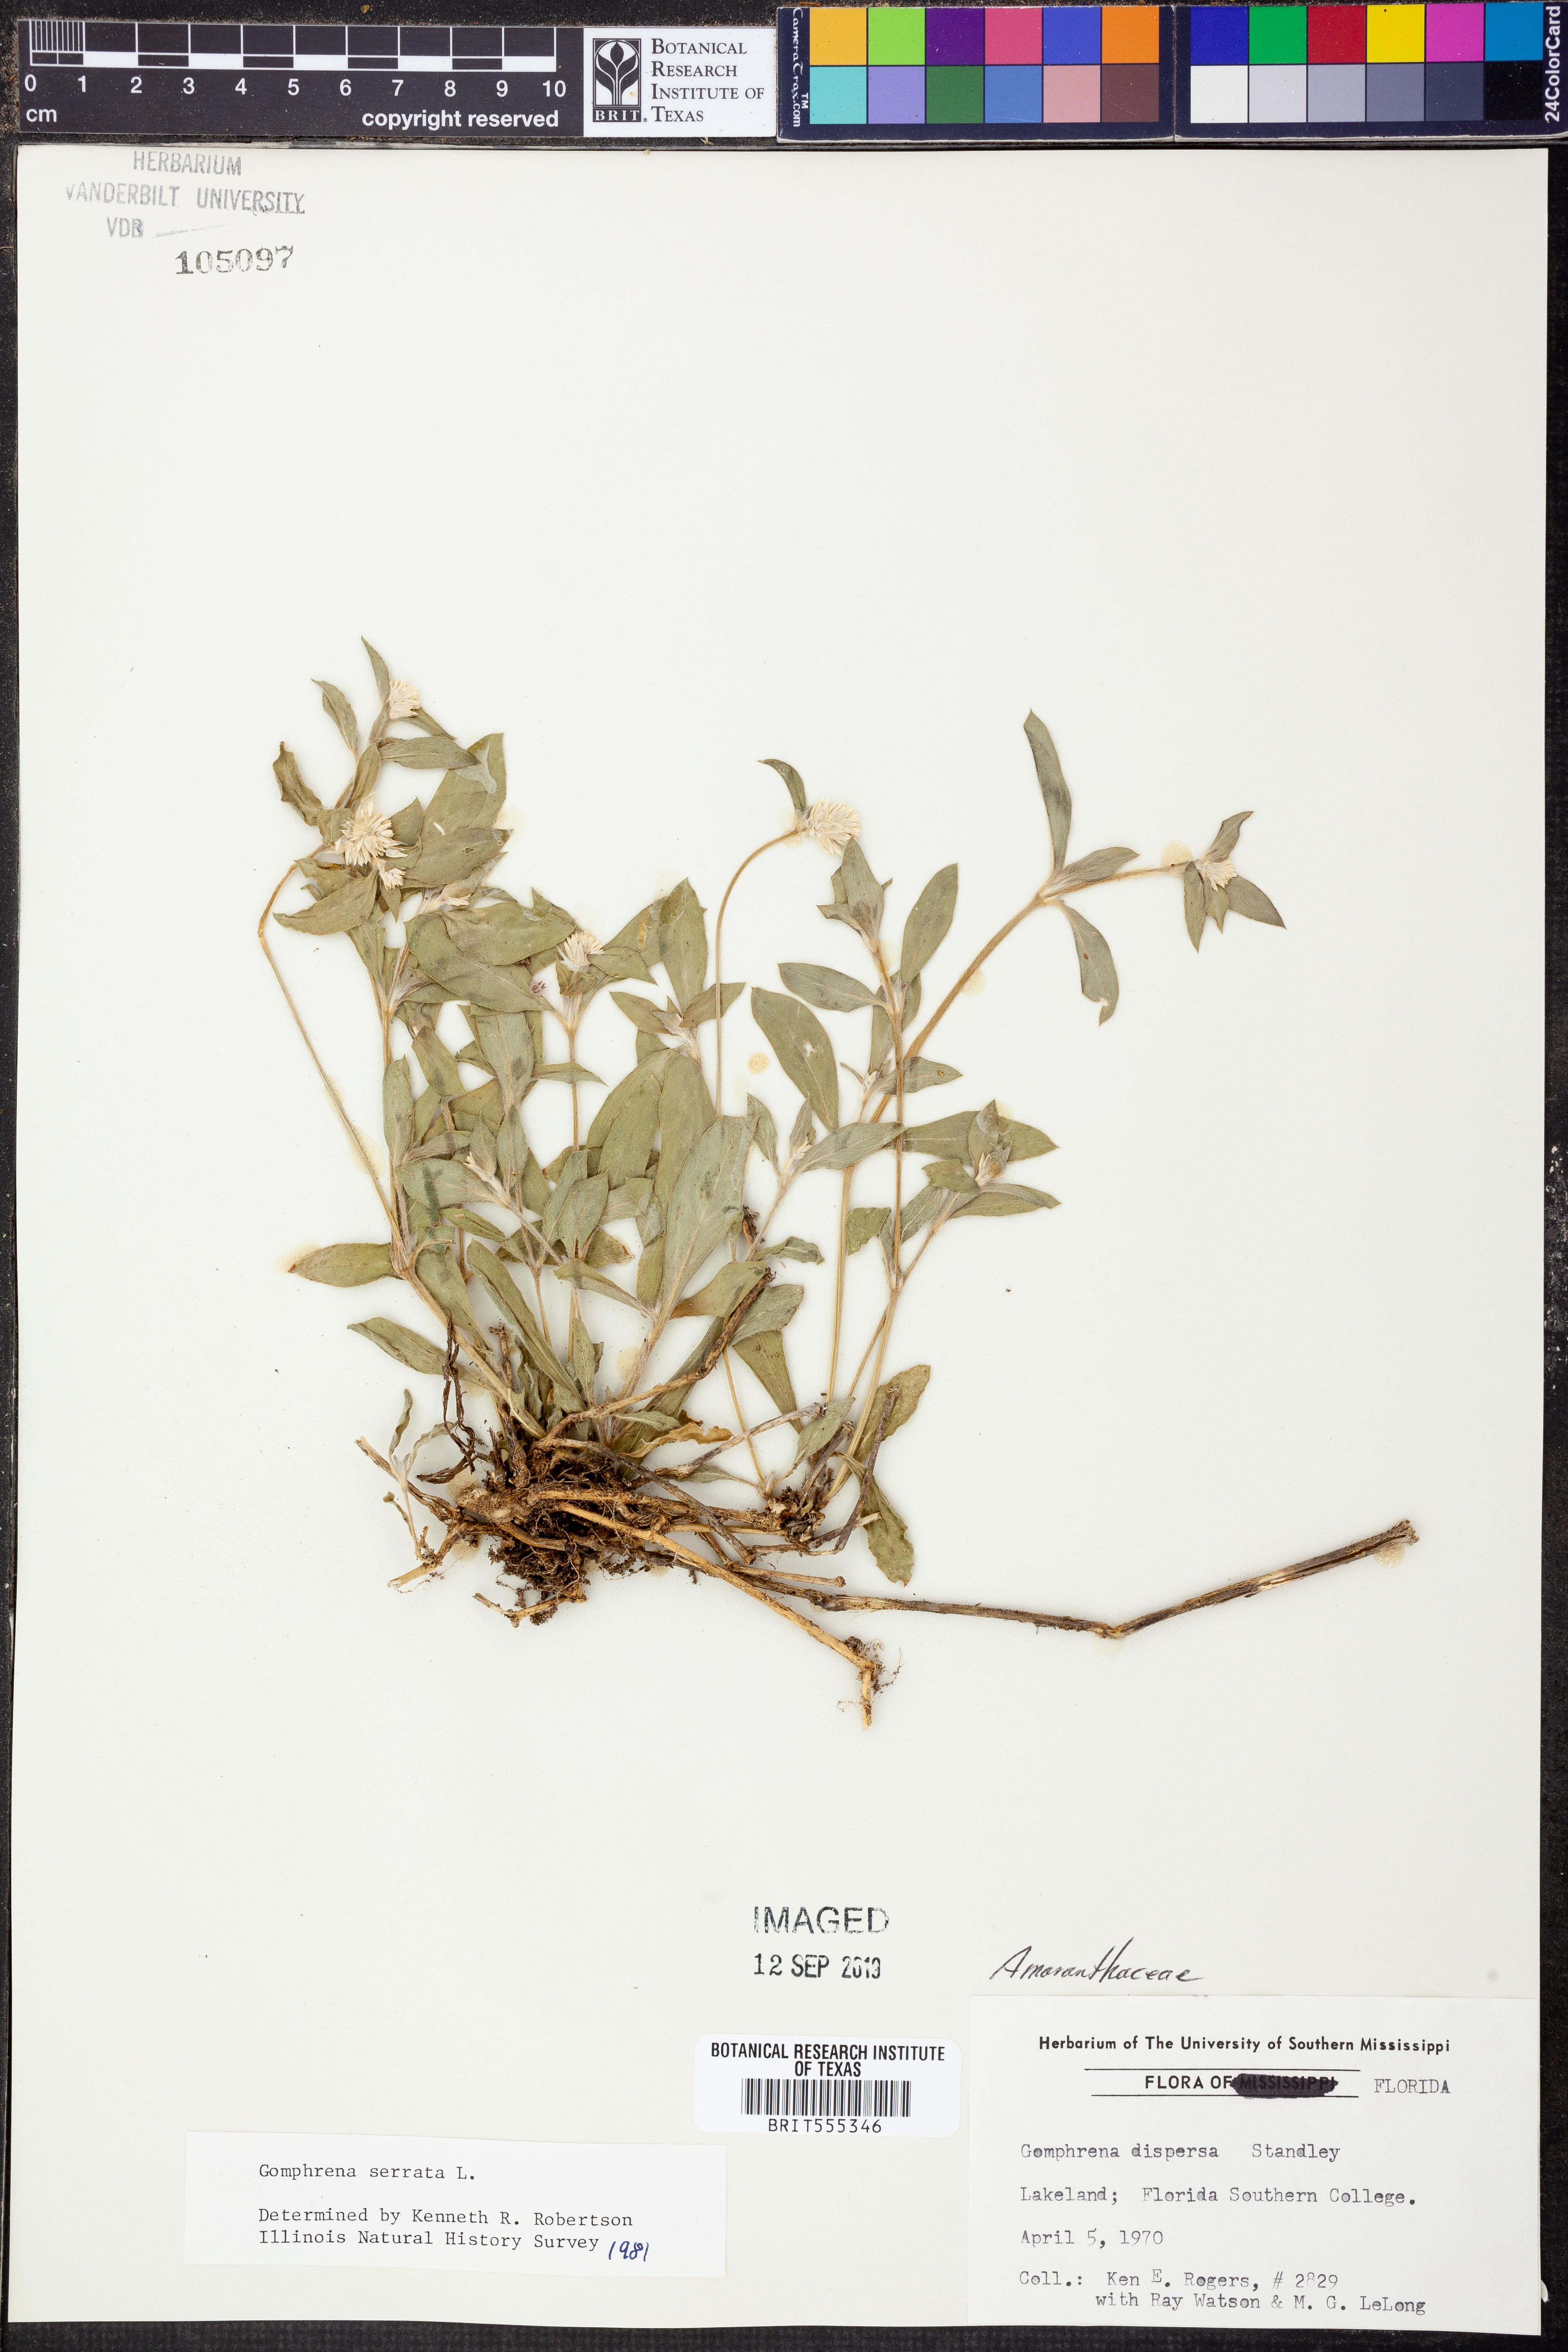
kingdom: Plantae
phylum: Tracheophyta
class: Magnoliopsida
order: Caryophyllales
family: Amaranthaceae
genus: Gomphrena
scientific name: Gomphrena serrata
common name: Arrasa con todo
